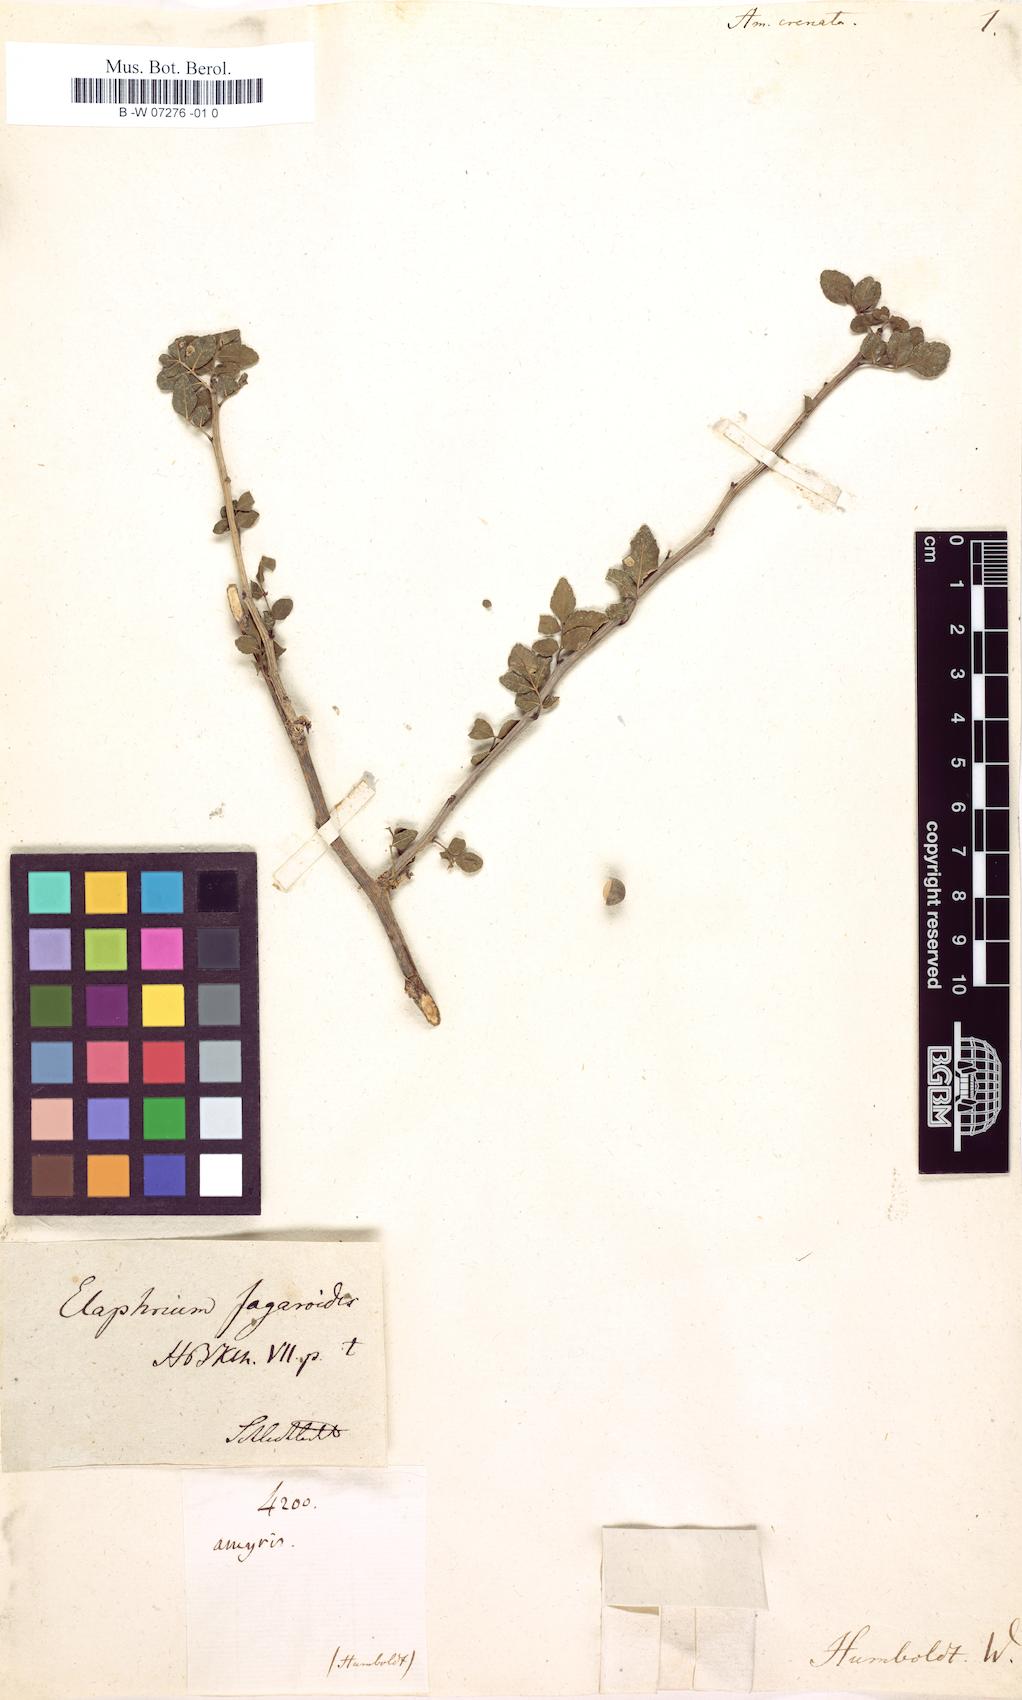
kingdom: Plantae
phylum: Tracheophyta
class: Magnoliopsida
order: Sapindales
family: Rutaceae
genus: Amyris
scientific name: Amyris
